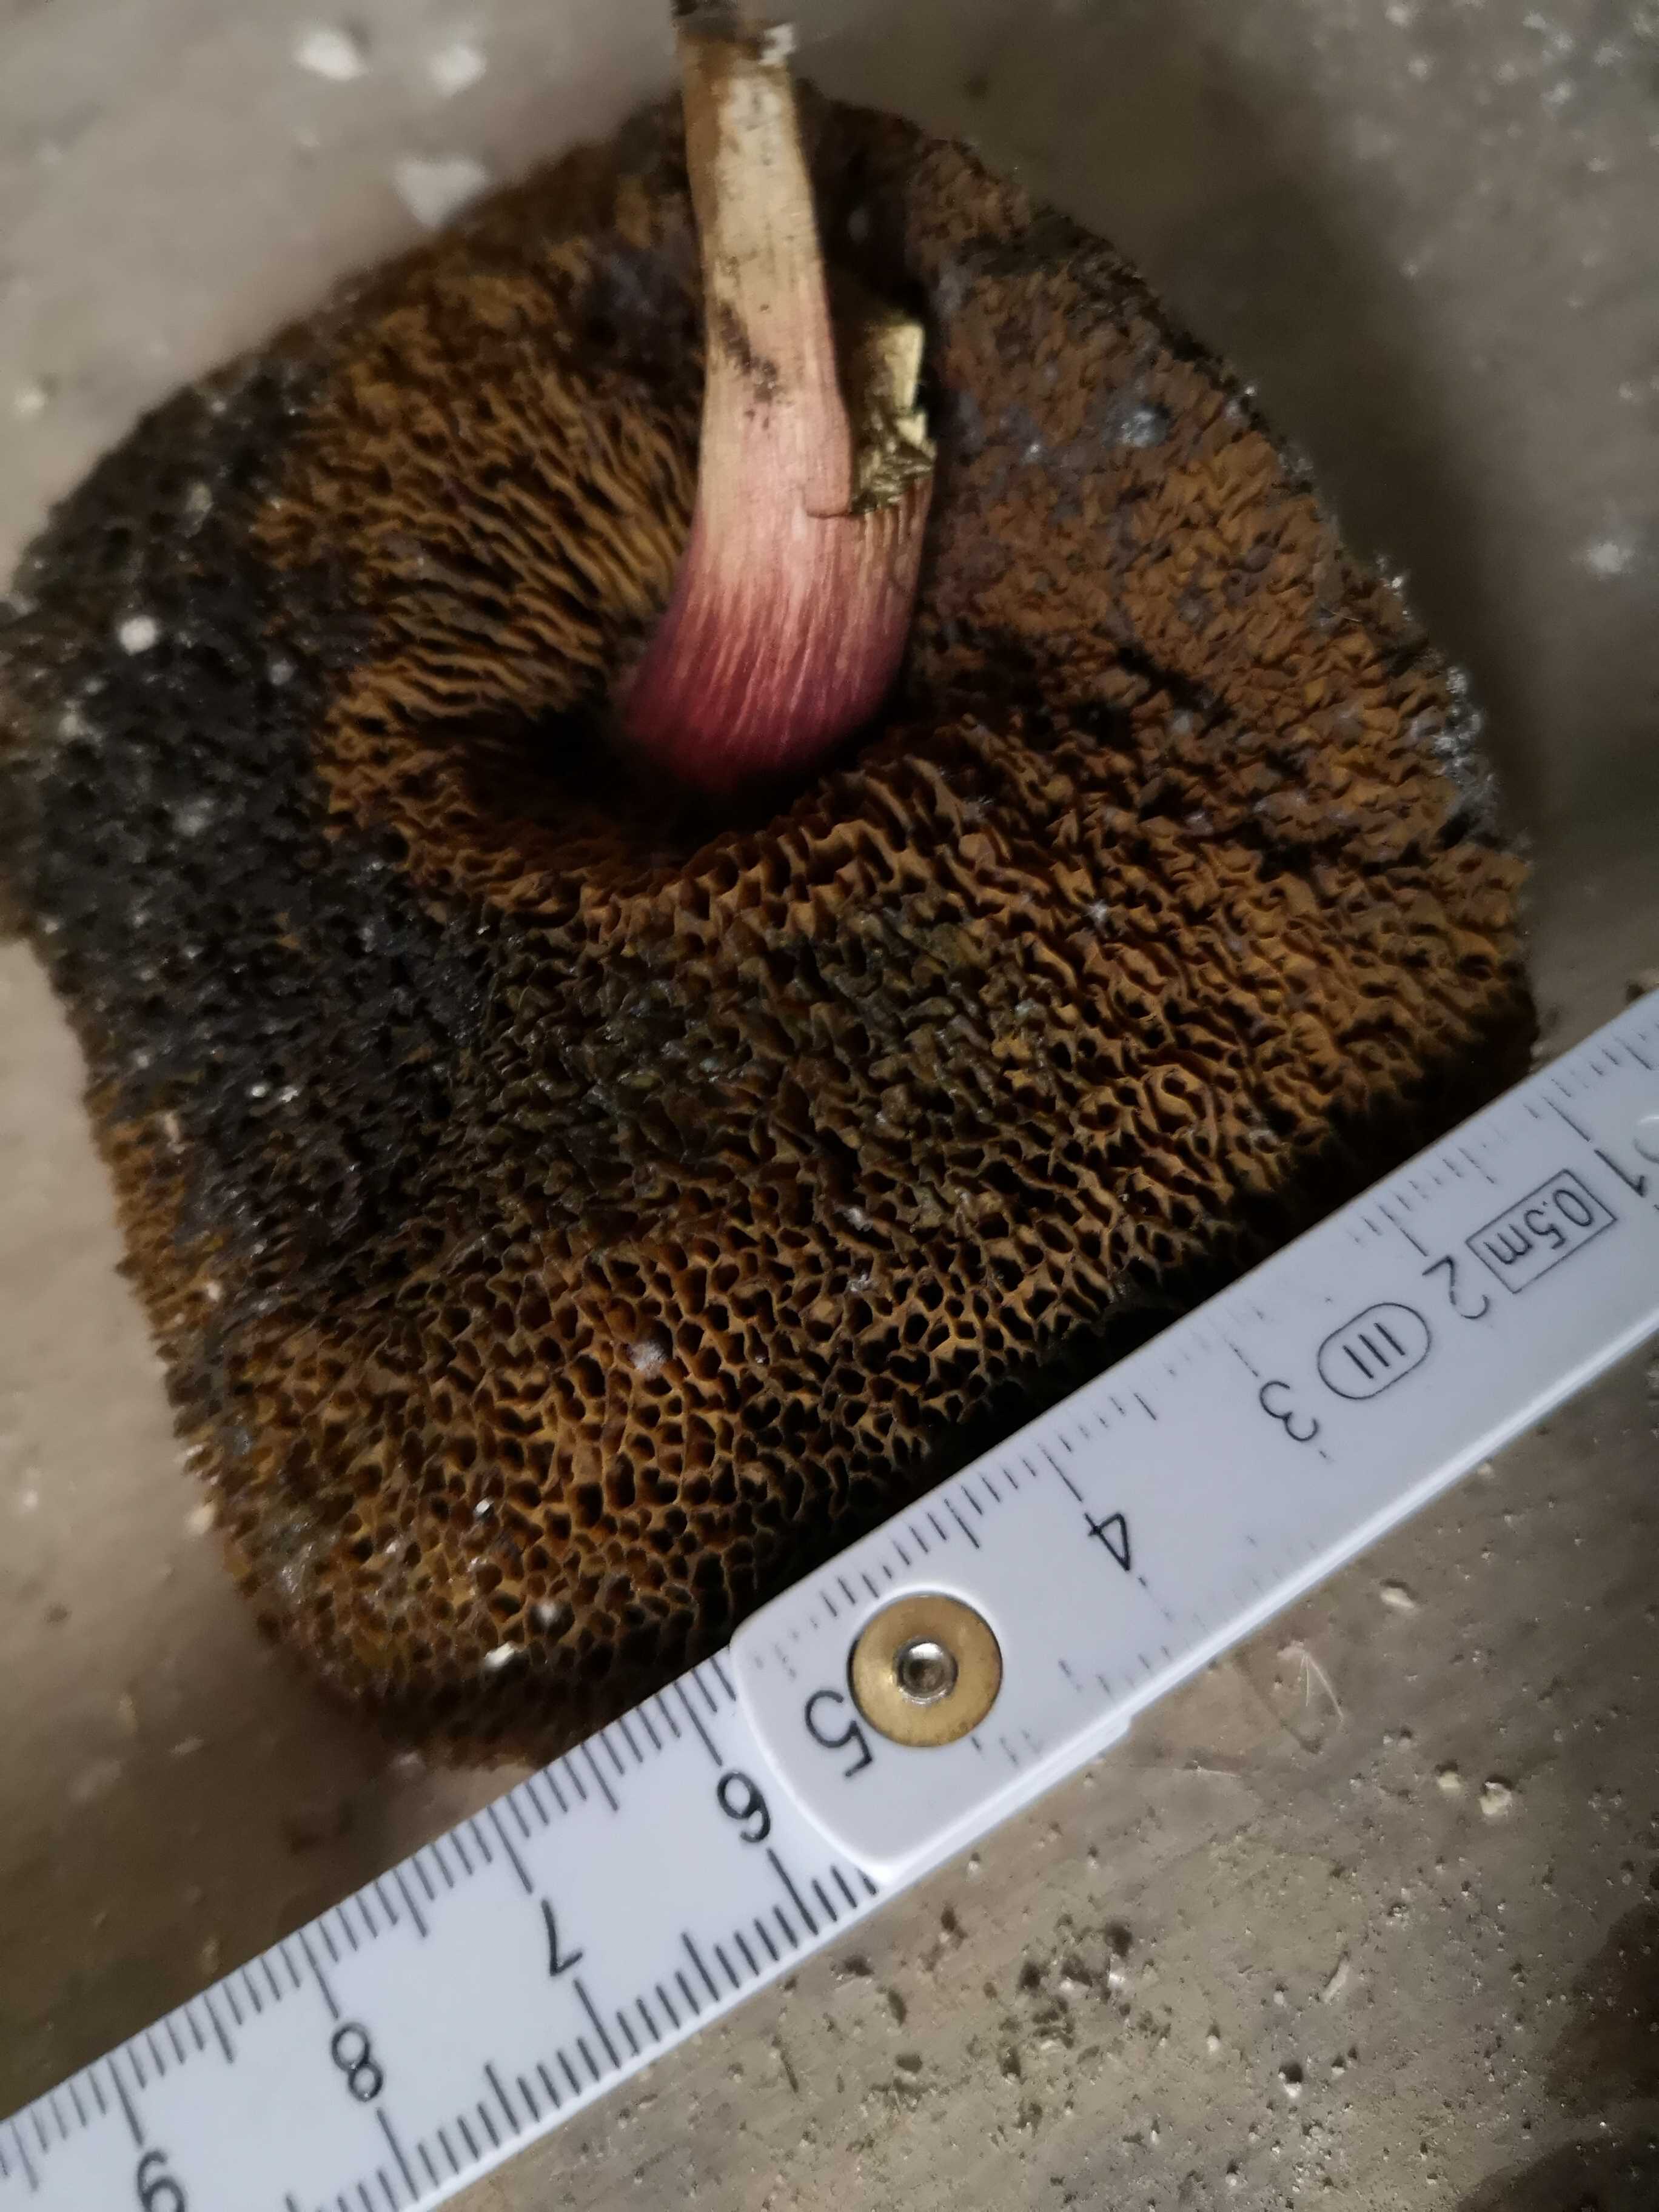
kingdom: Fungi
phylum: Basidiomycota
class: Agaricomycetes
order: Boletales
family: Boletaceae
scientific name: Boletaceae
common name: rørhatfamilien
